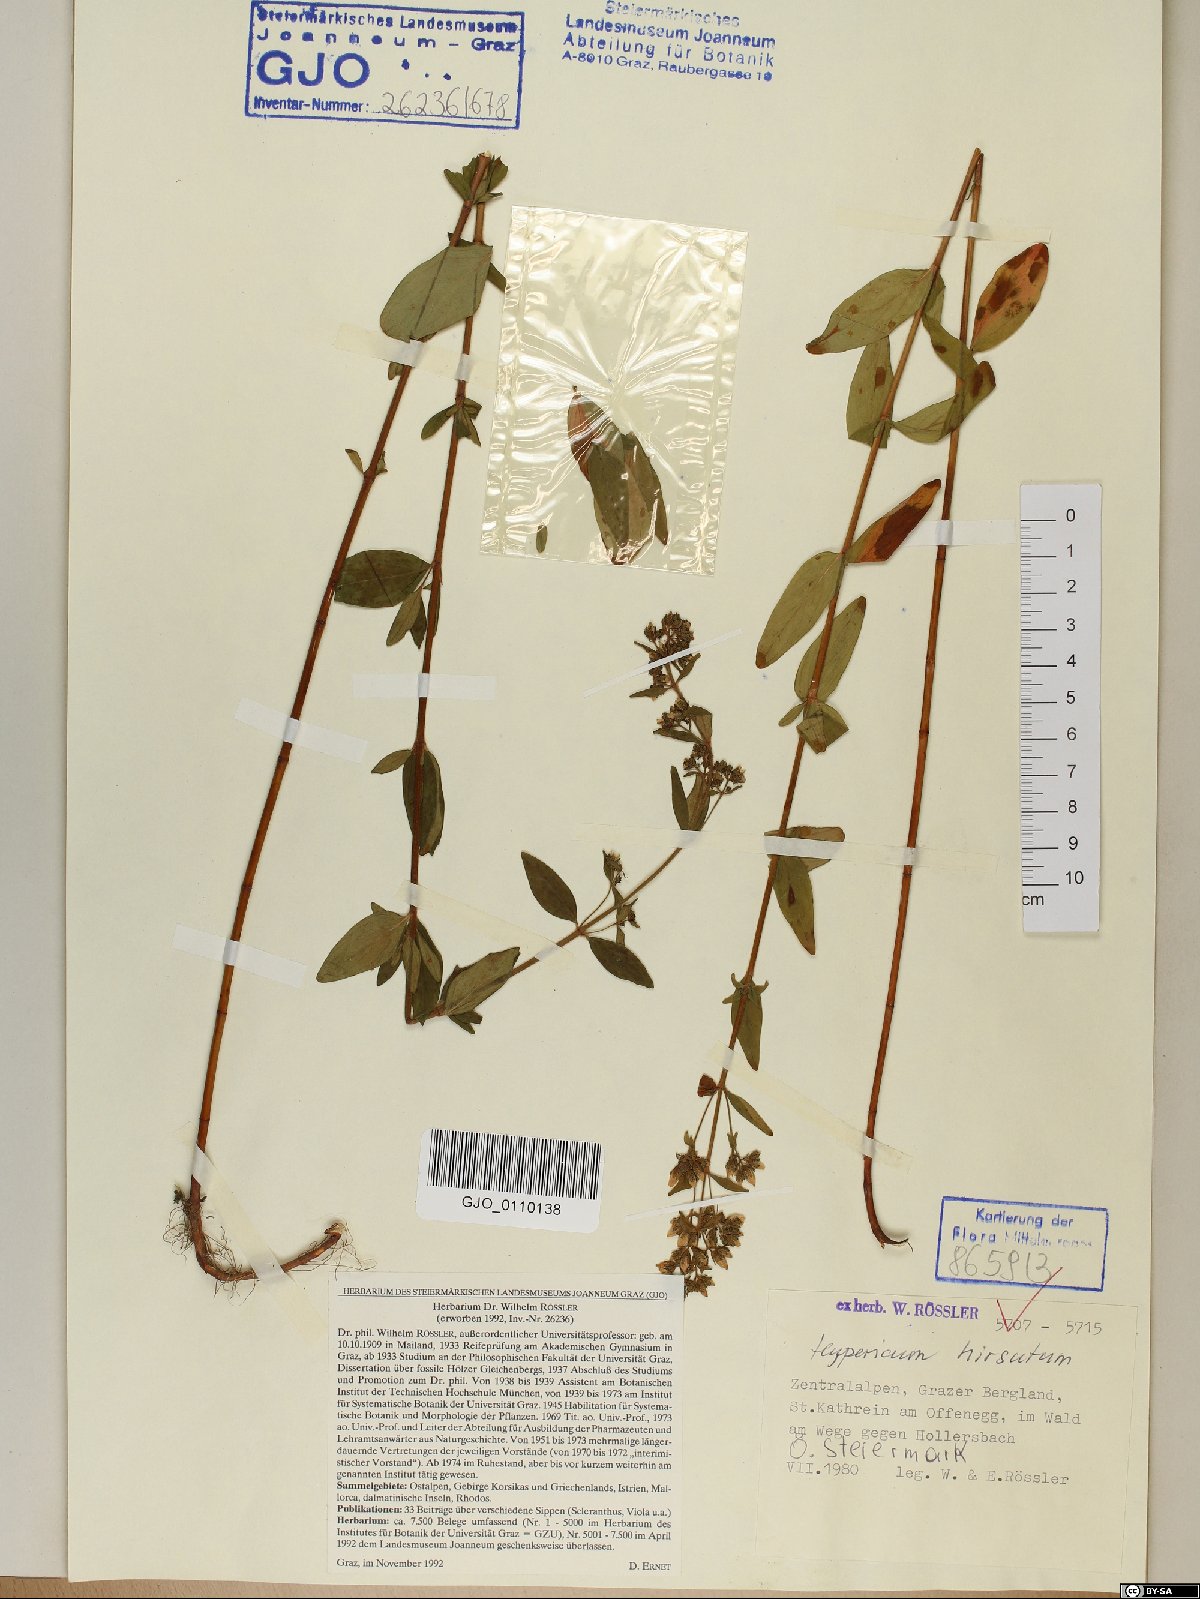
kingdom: Plantae
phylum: Tracheophyta
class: Magnoliopsida
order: Malpighiales
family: Hypericaceae
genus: Hypericum
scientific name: Hypericum hirsutum
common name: Hairy st. john's-wort
